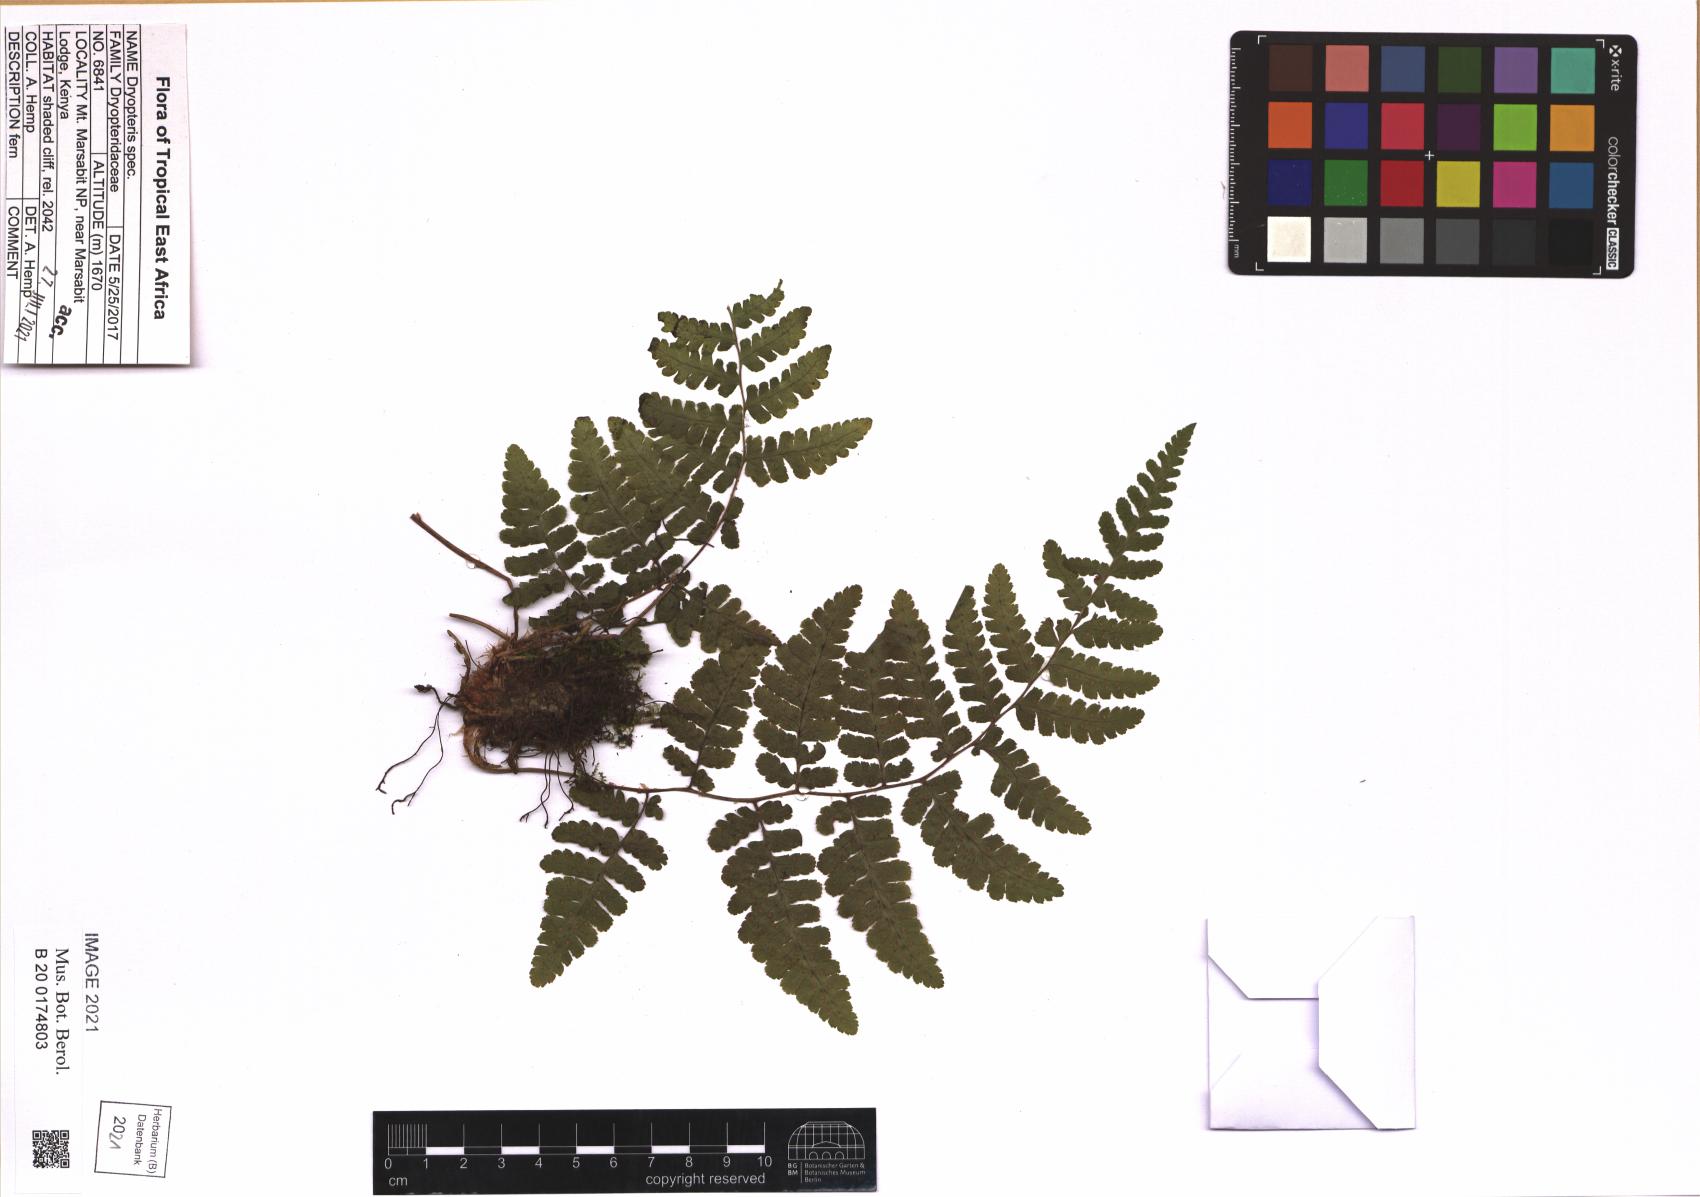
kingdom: Plantae
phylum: Tracheophyta
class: Polypodiopsida
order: Polypodiales
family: Dryopteridaceae
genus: Dryopteris
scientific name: Dryopteris
